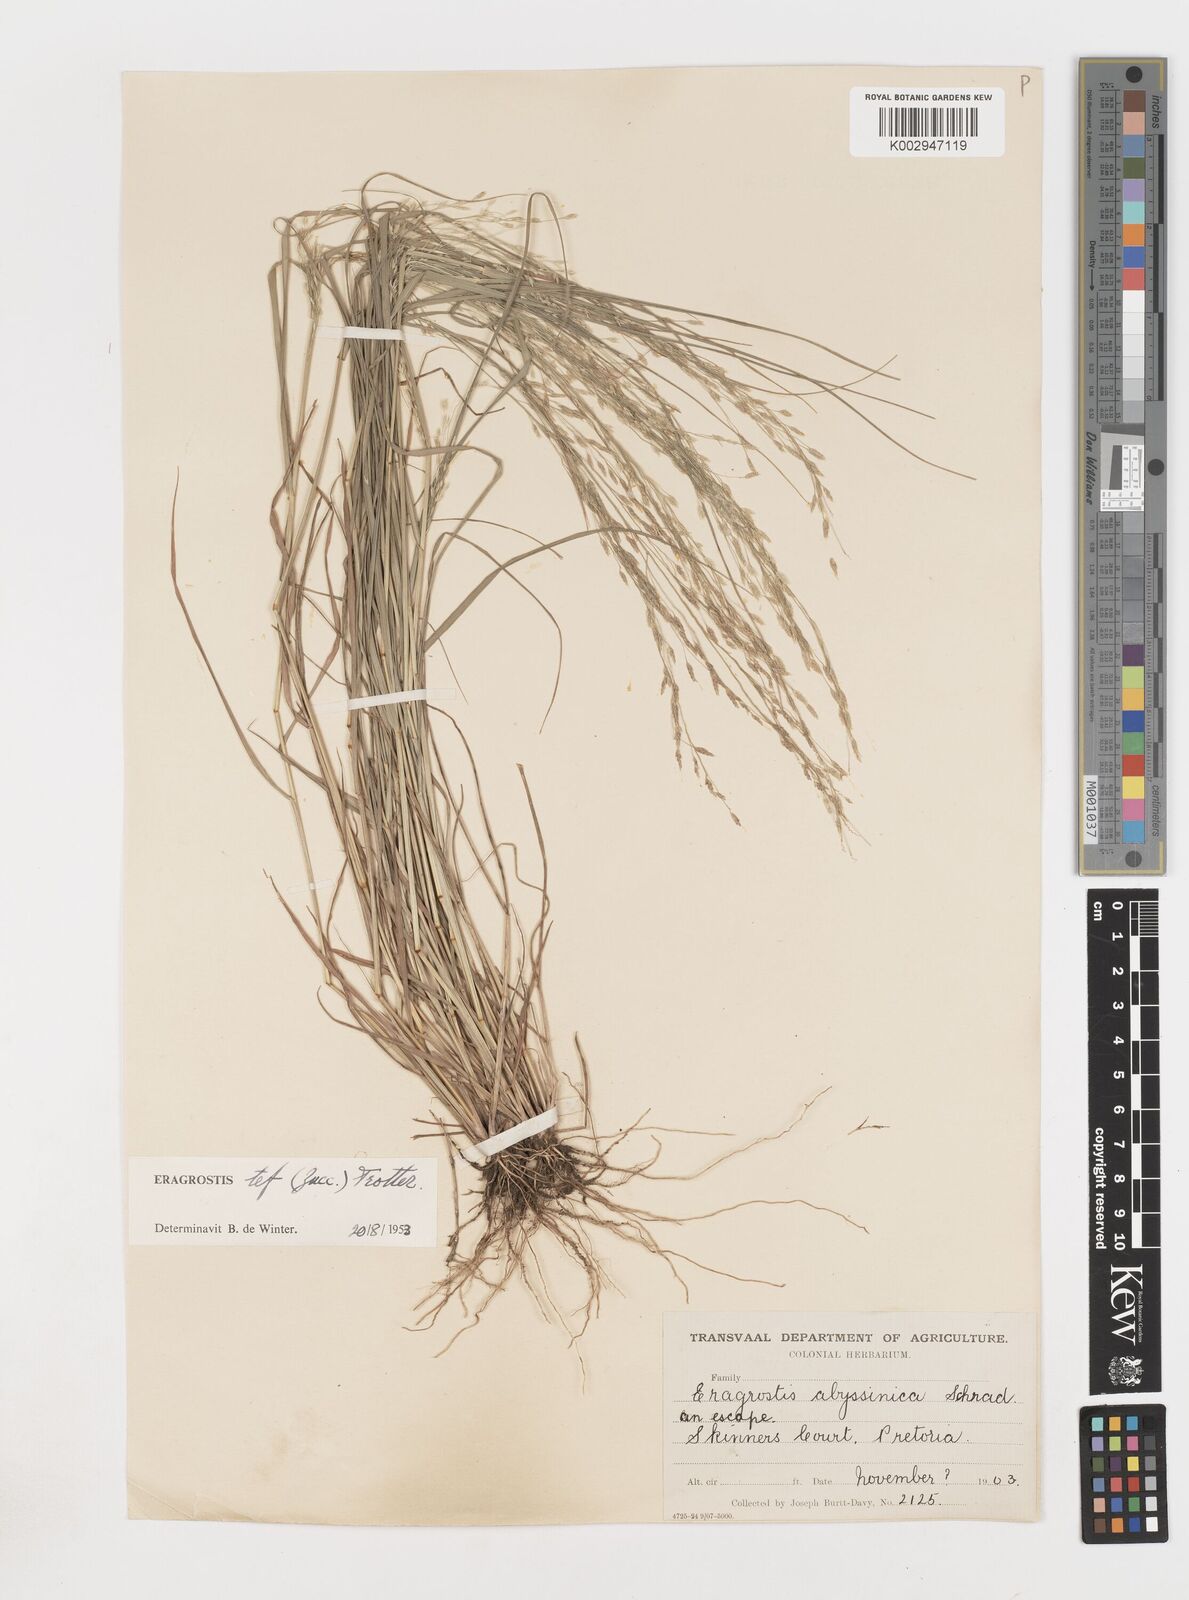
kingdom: Plantae
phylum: Tracheophyta
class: Liliopsida
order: Poales
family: Poaceae
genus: Eragrostis
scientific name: Eragrostis tef
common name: Teff
